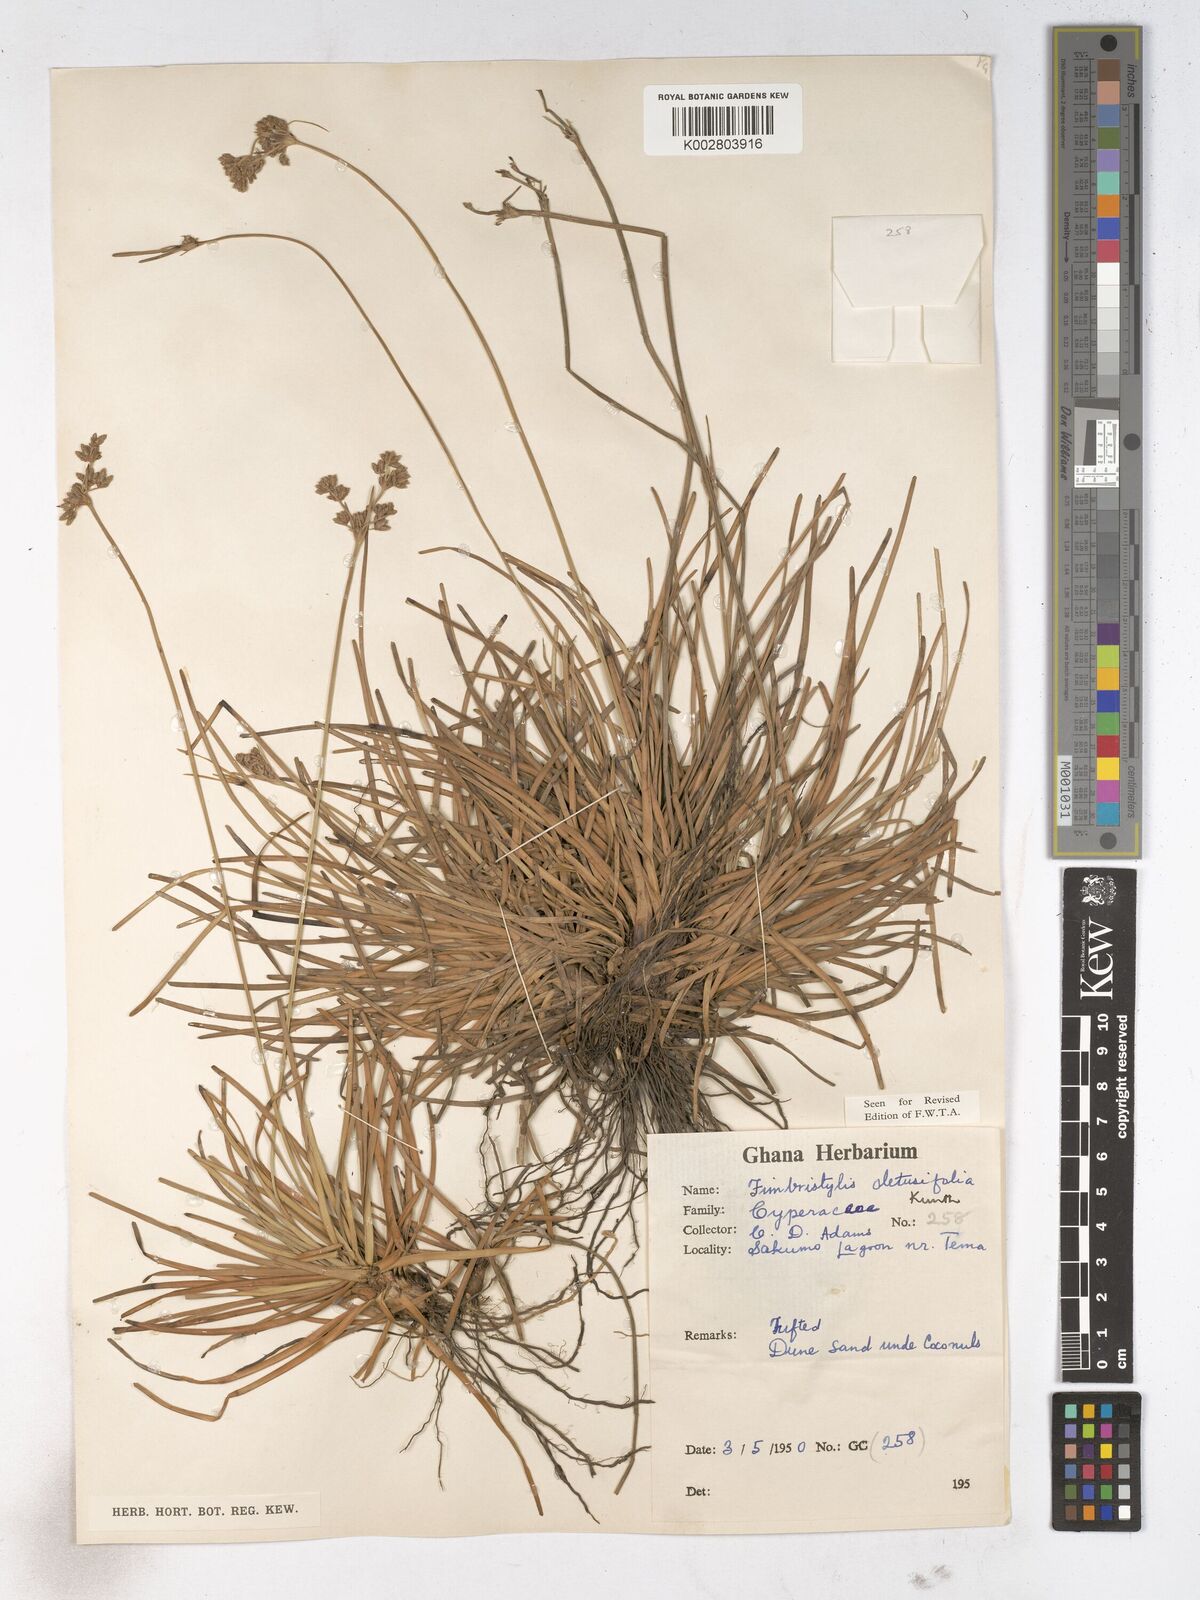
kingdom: Plantae
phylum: Tracheophyta
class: Liliopsida
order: Poales
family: Cyperaceae
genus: Fimbristylis
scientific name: Fimbristylis cymosa
